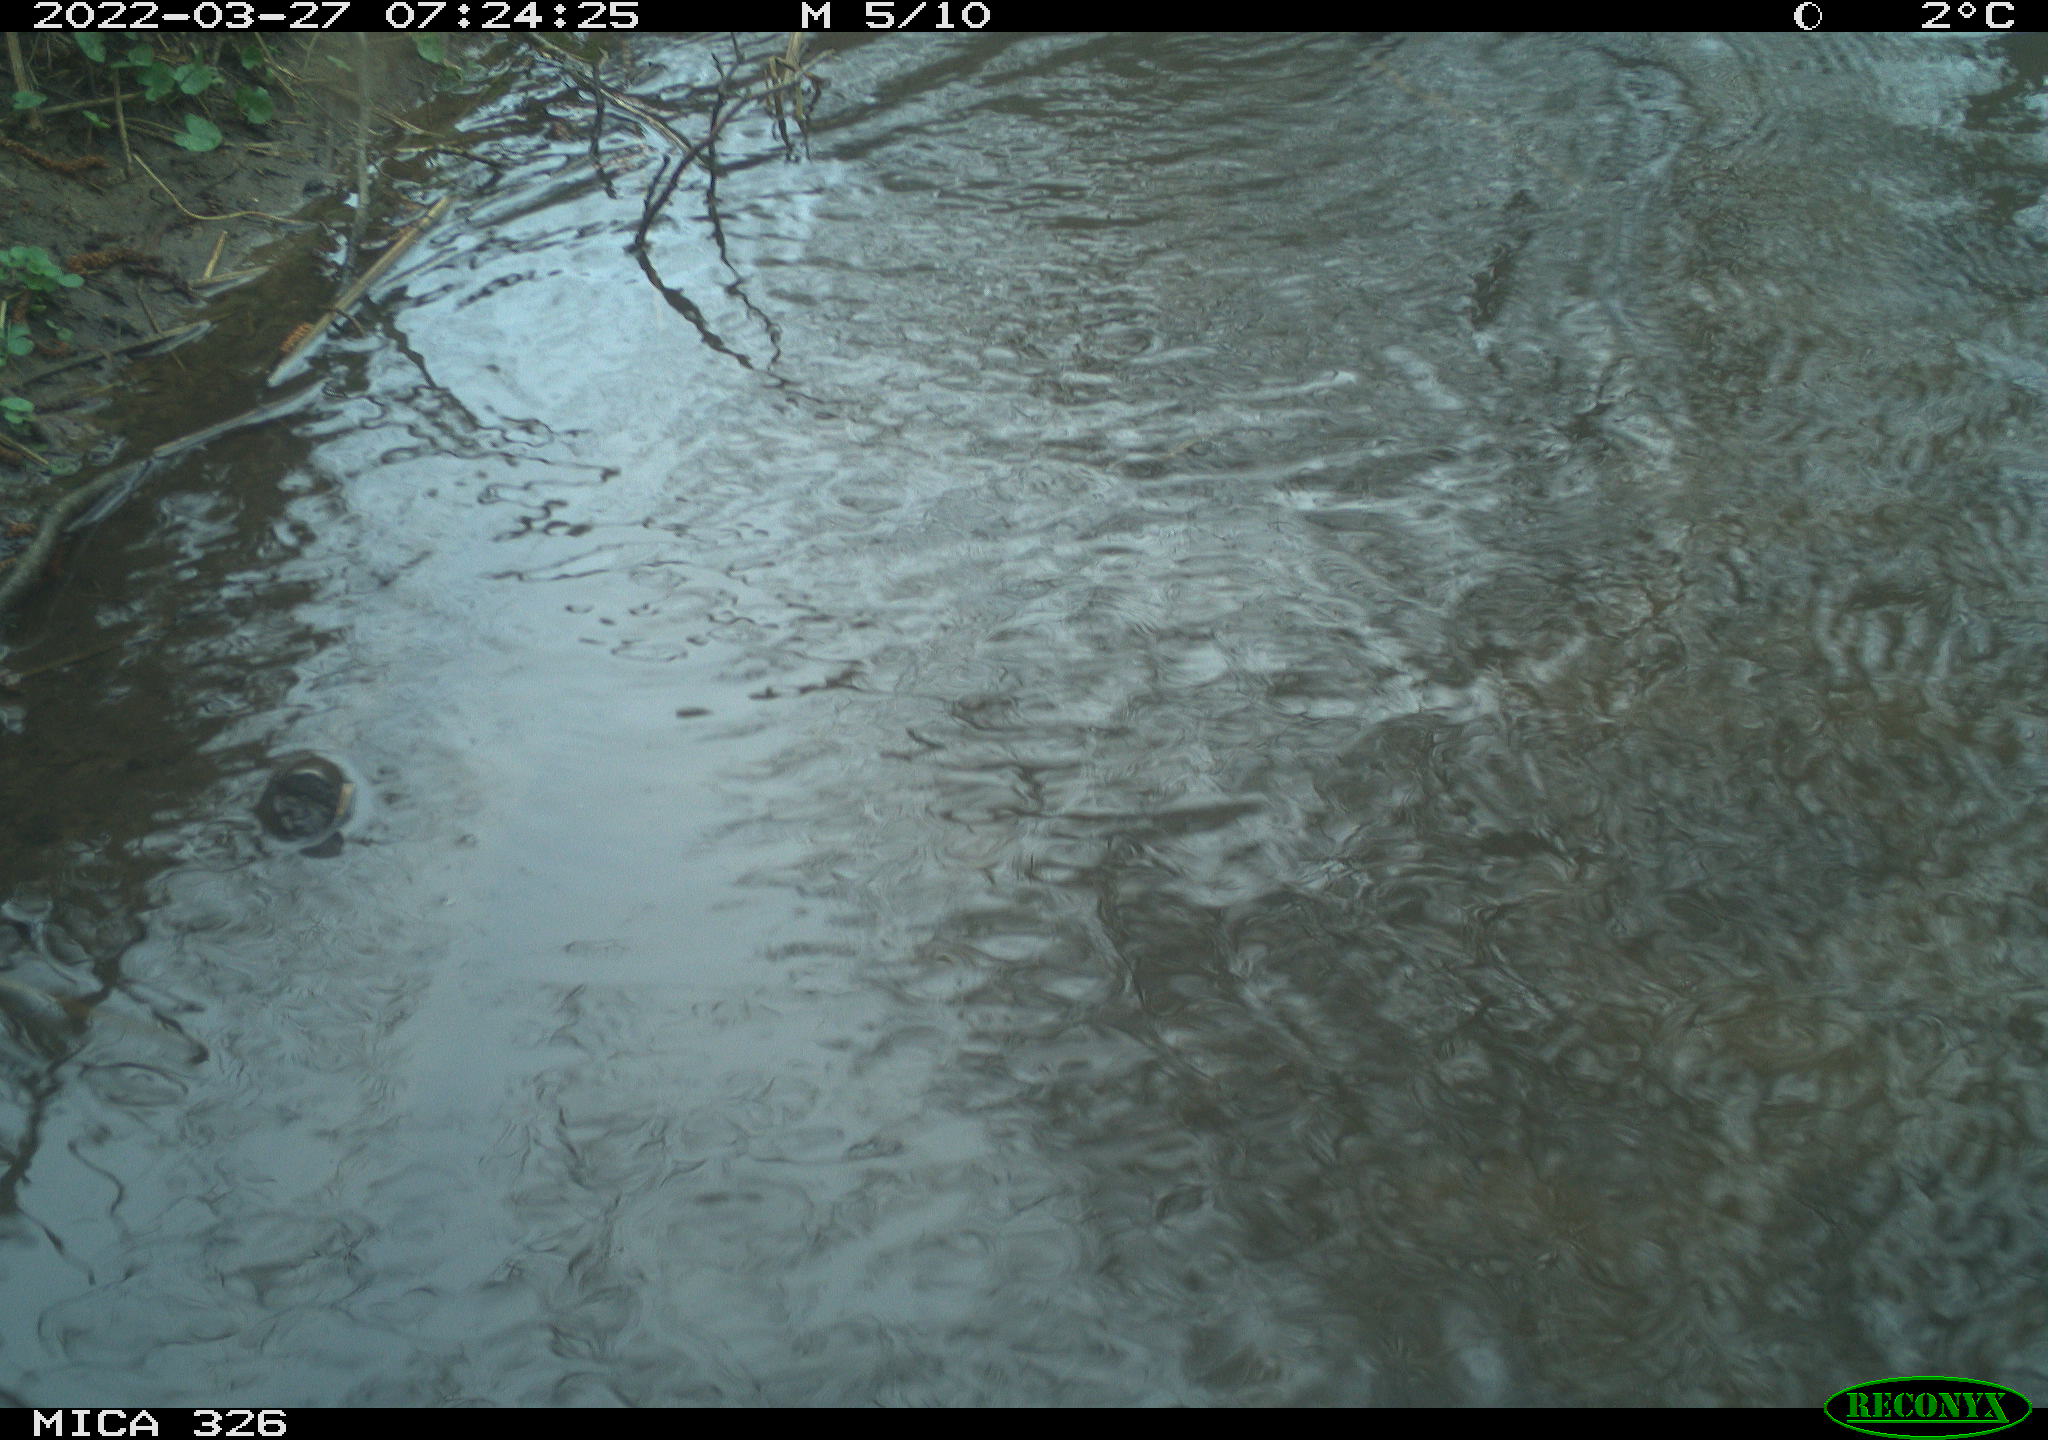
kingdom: Animalia
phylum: Chordata
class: Aves
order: Gruiformes
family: Rallidae
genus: Gallinula
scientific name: Gallinula chloropus
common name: Common moorhen
